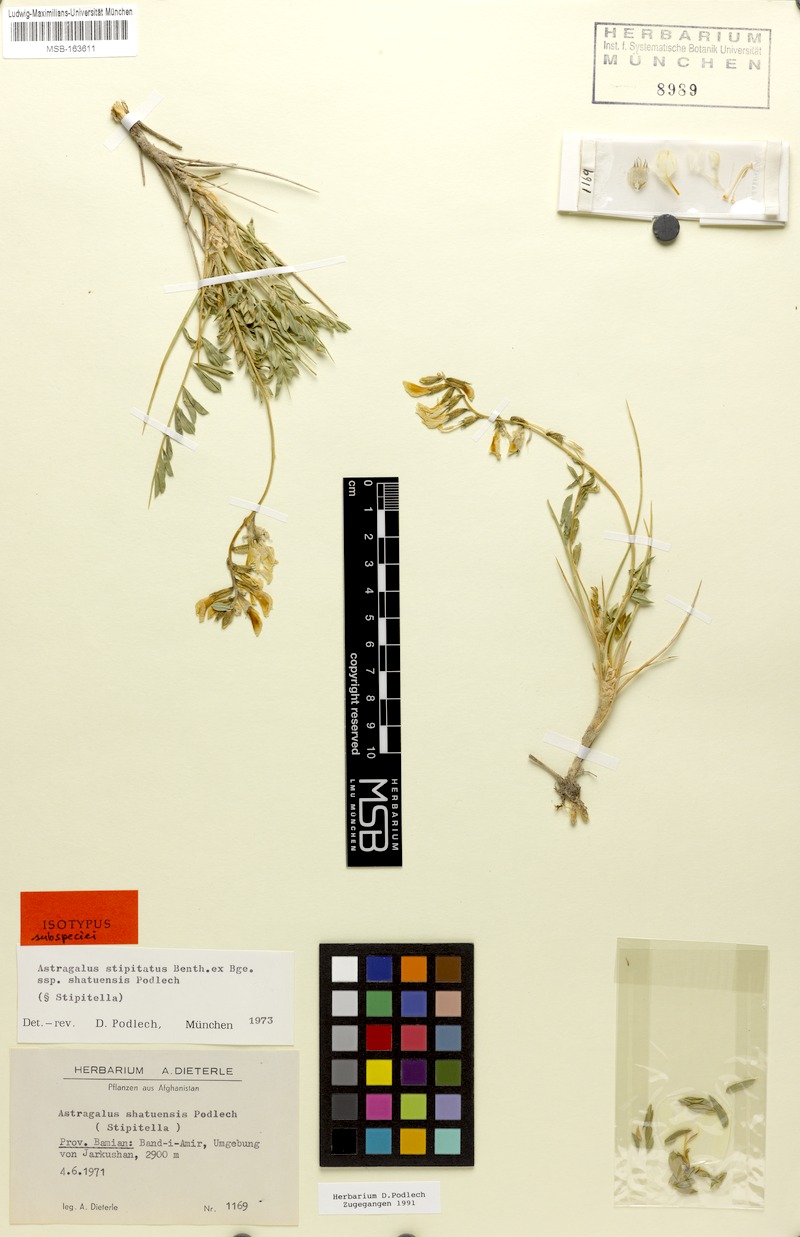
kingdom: Plantae
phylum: Tracheophyta
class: Magnoliopsida
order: Fabales
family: Fabaceae
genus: Astragalus
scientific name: Astragalus stipitatus
